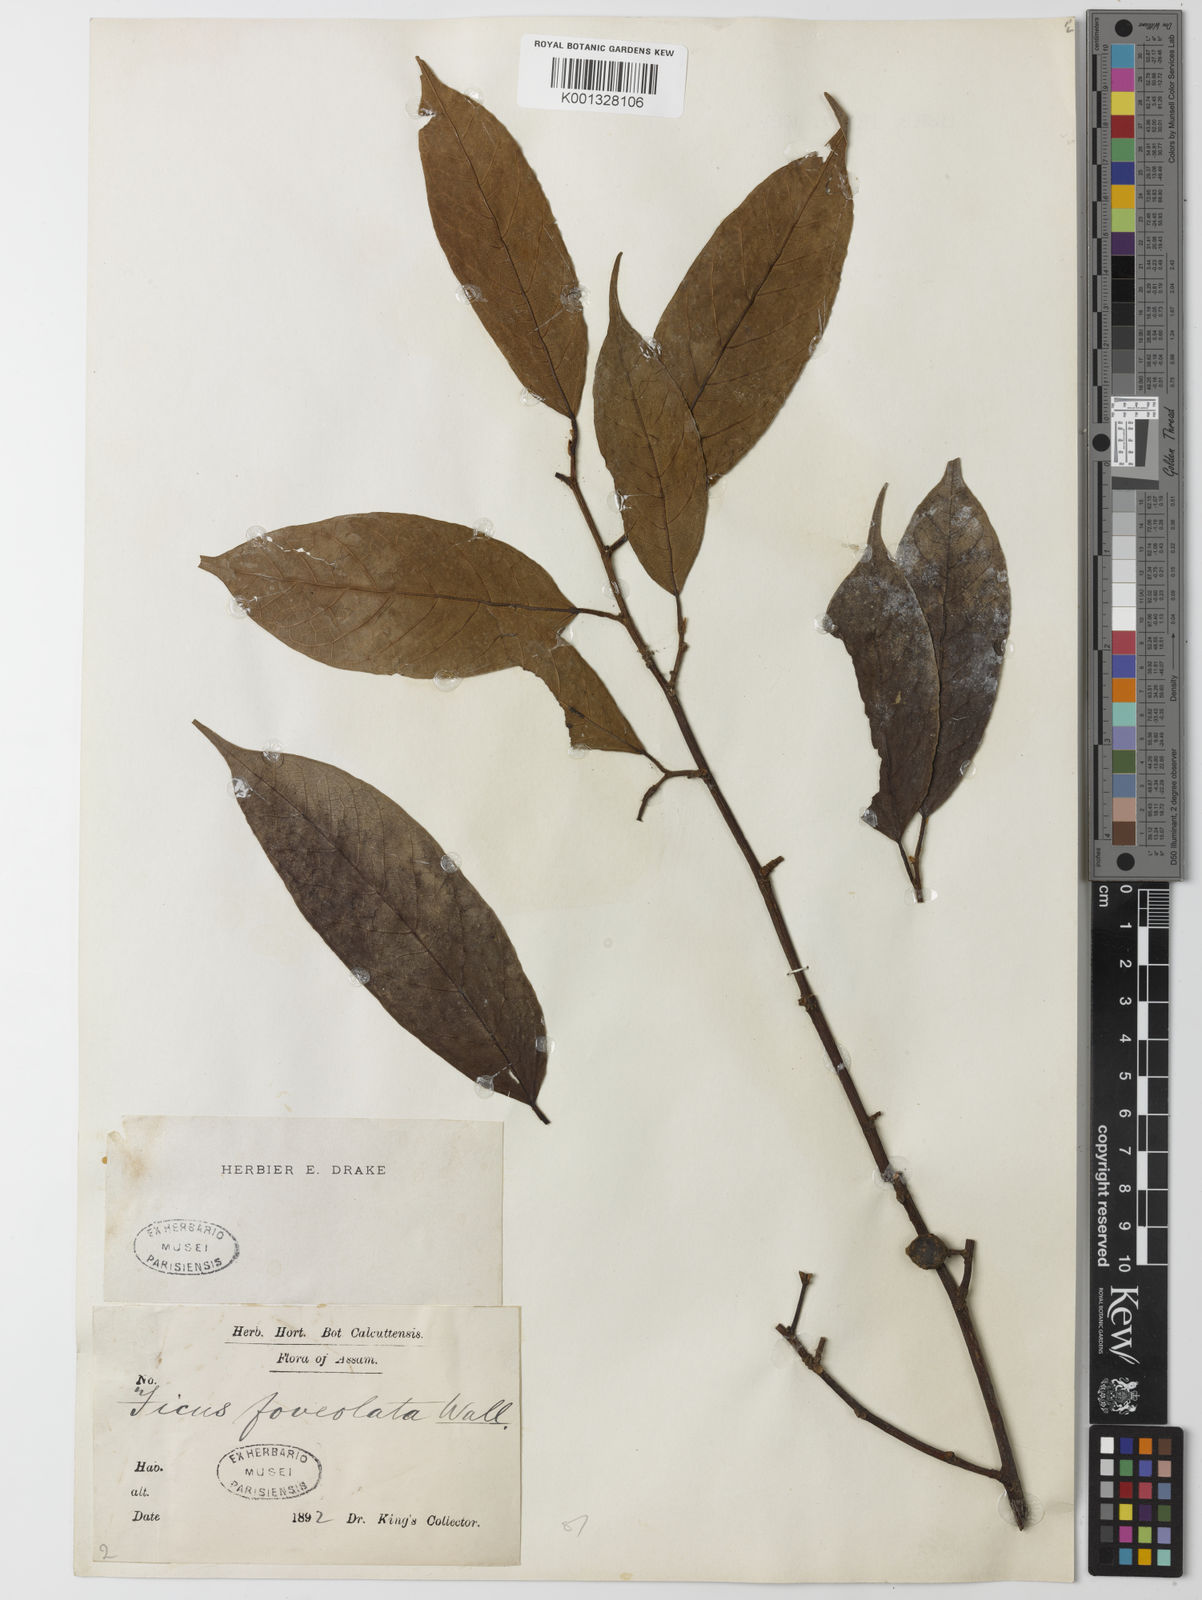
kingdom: Plantae
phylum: Tracheophyta
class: Magnoliopsida
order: Rosales
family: Moraceae
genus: Ficus
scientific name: Ficus sarmentosa
